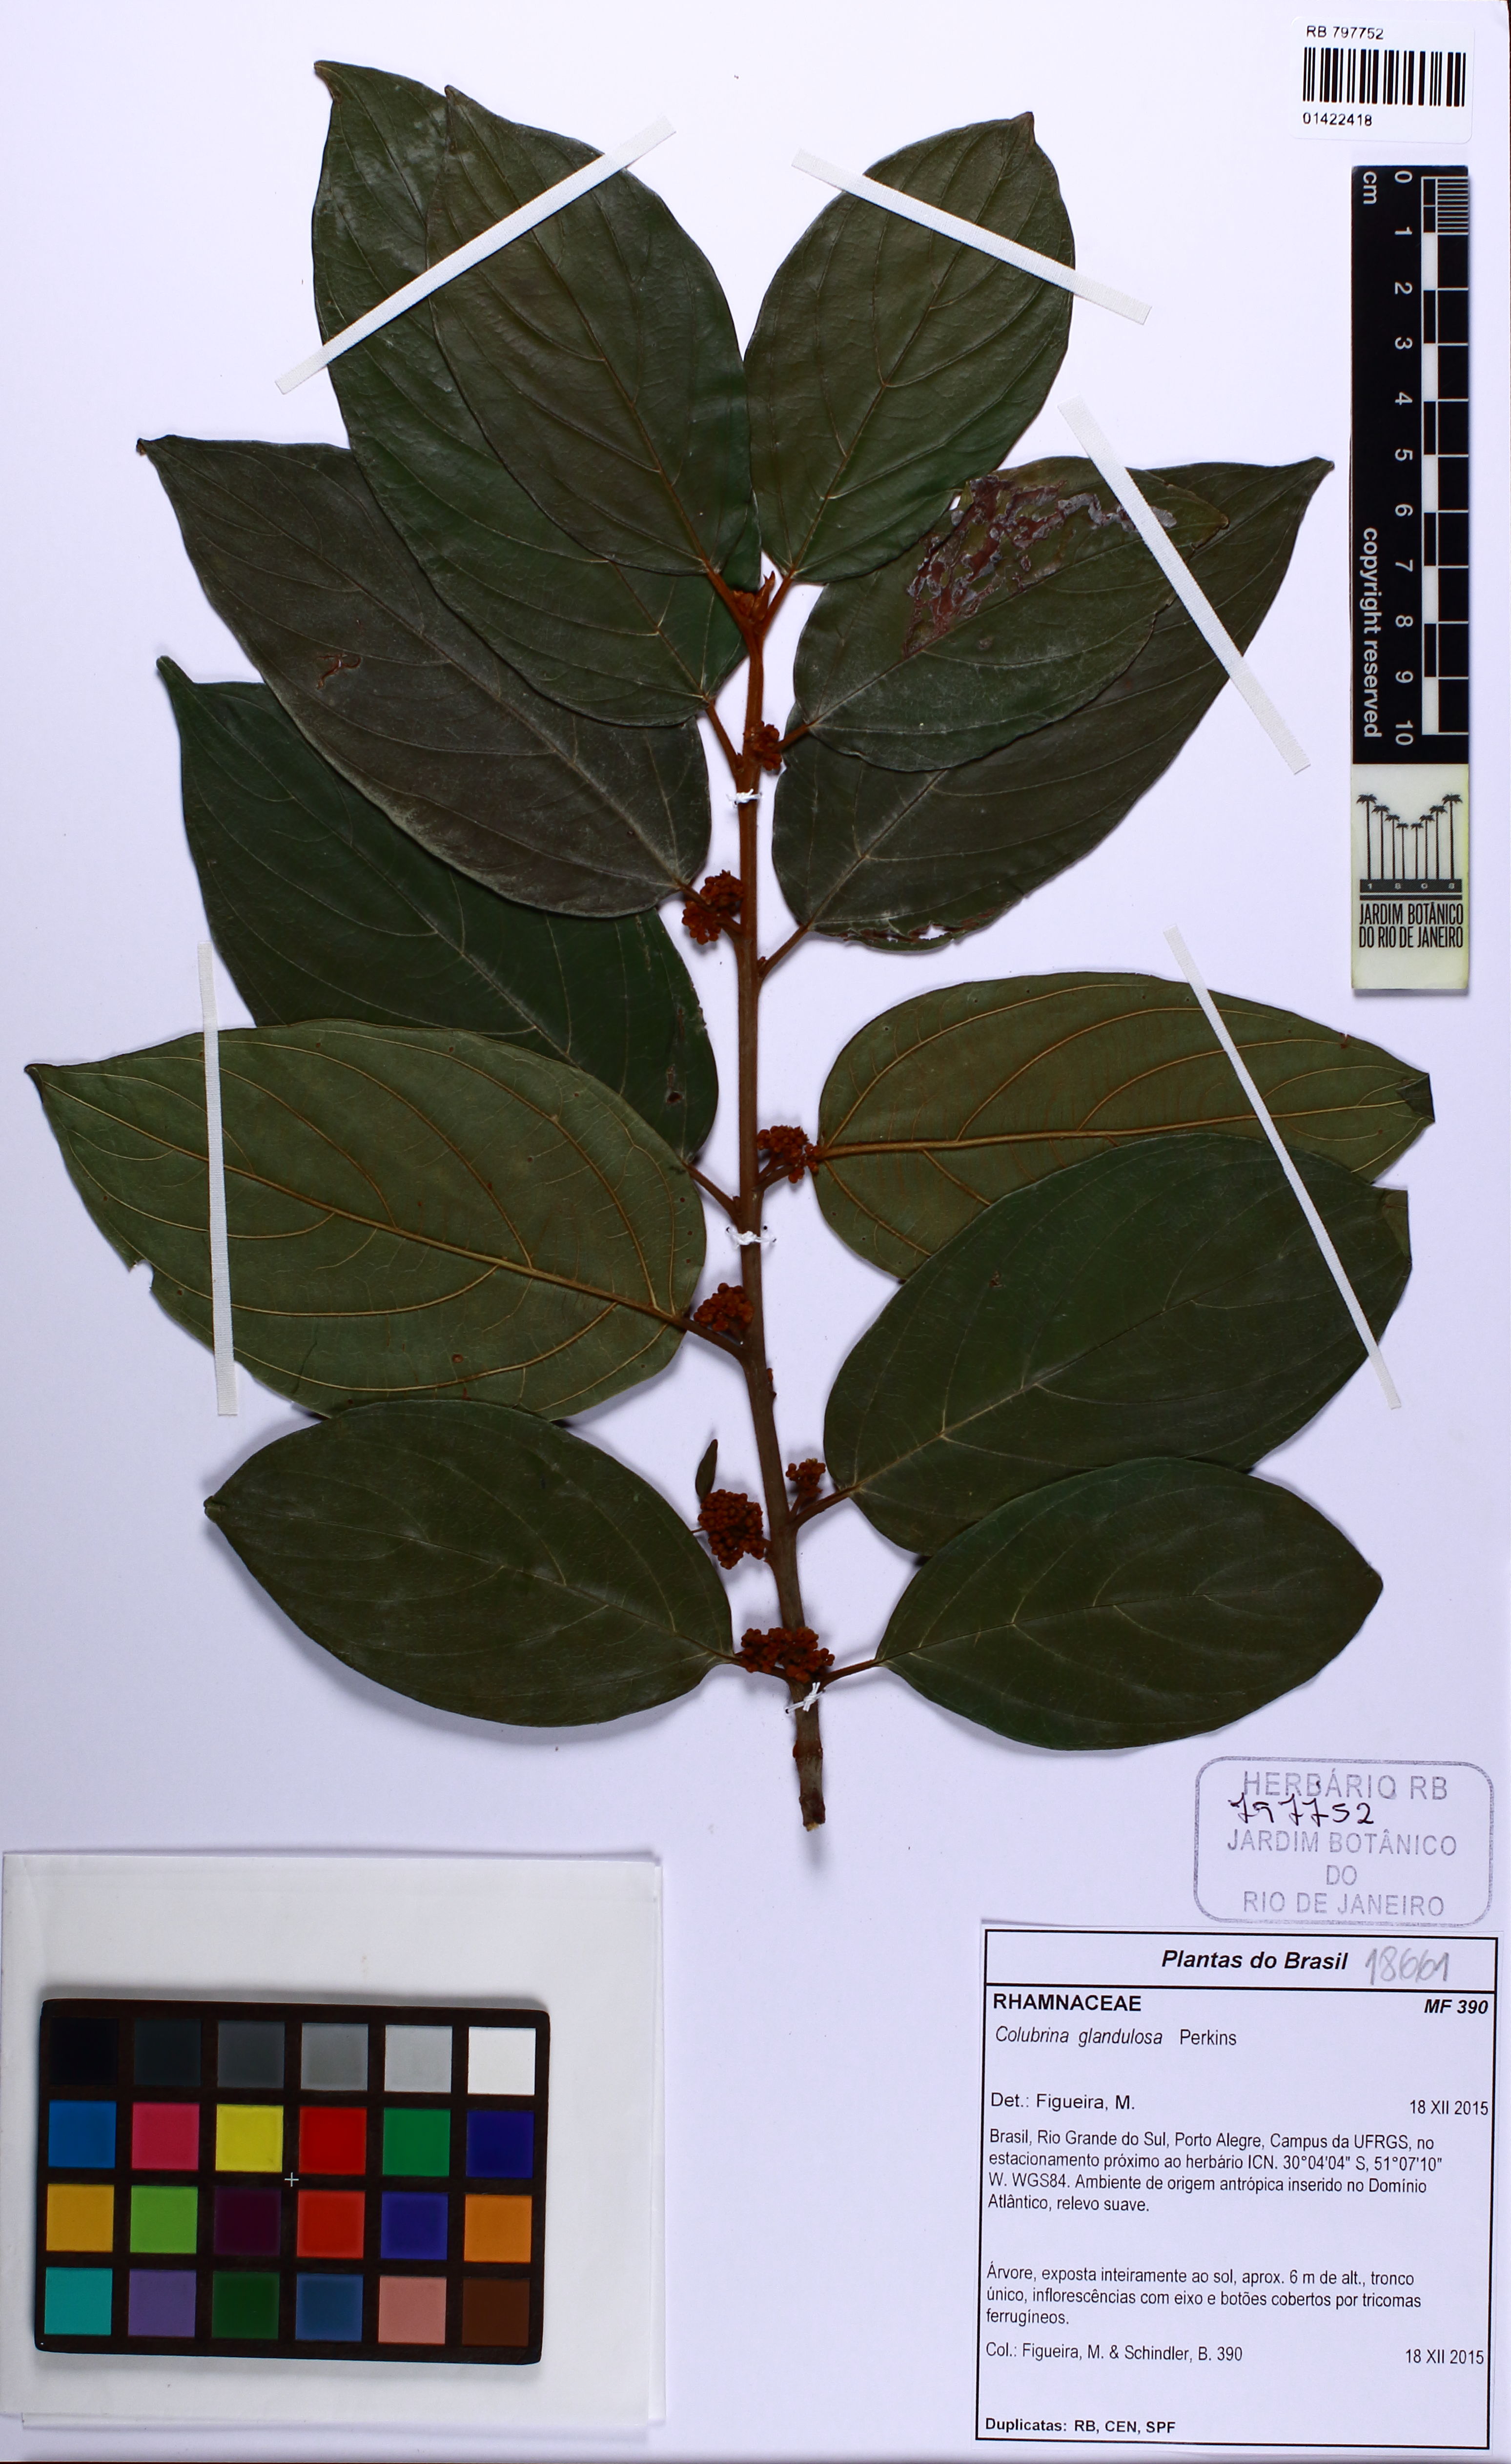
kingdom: Plantae
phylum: Tracheophyta
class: Magnoliopsida
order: Rosales
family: Rhamnaceae
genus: Colubrina
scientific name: Colubrina glandulosa
